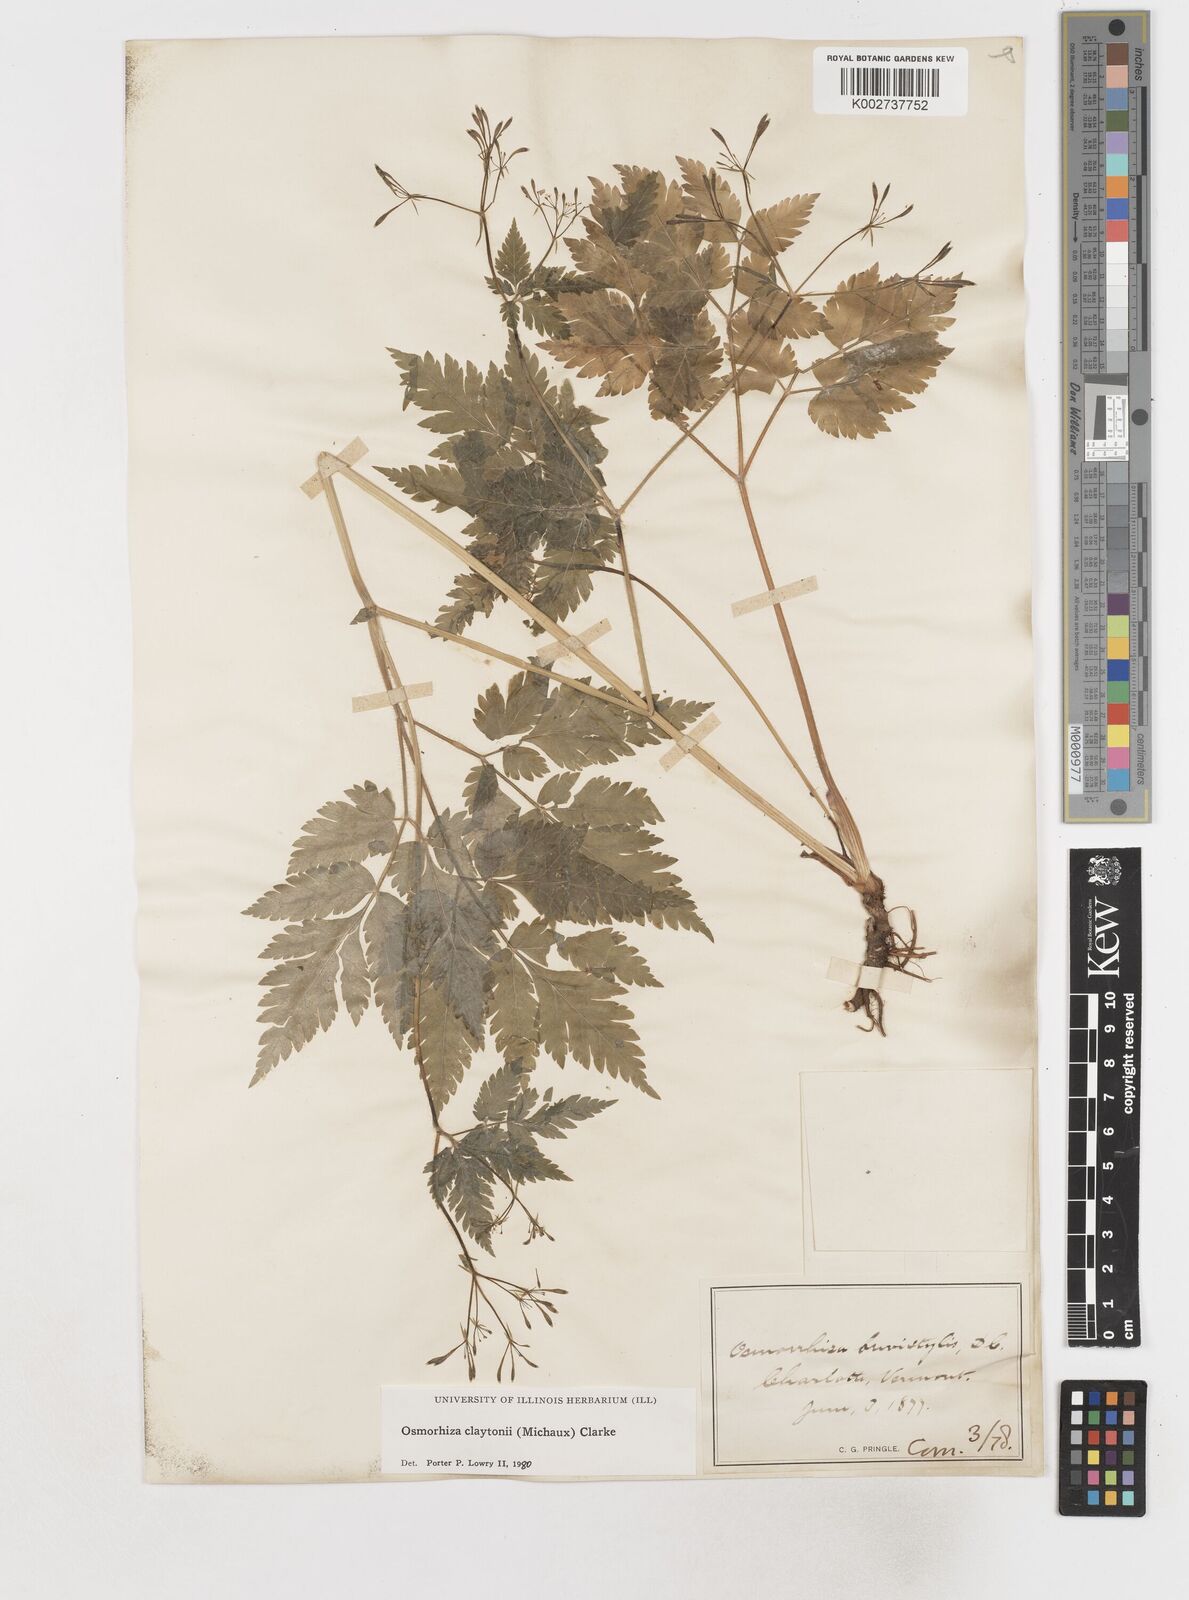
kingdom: Plantae
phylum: Tracheophyta
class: Magnoliopsida
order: Apiales
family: Apiaceae
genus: Osmorhiza
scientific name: Osmorhiza claytonii
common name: Hairy sweet cicely
